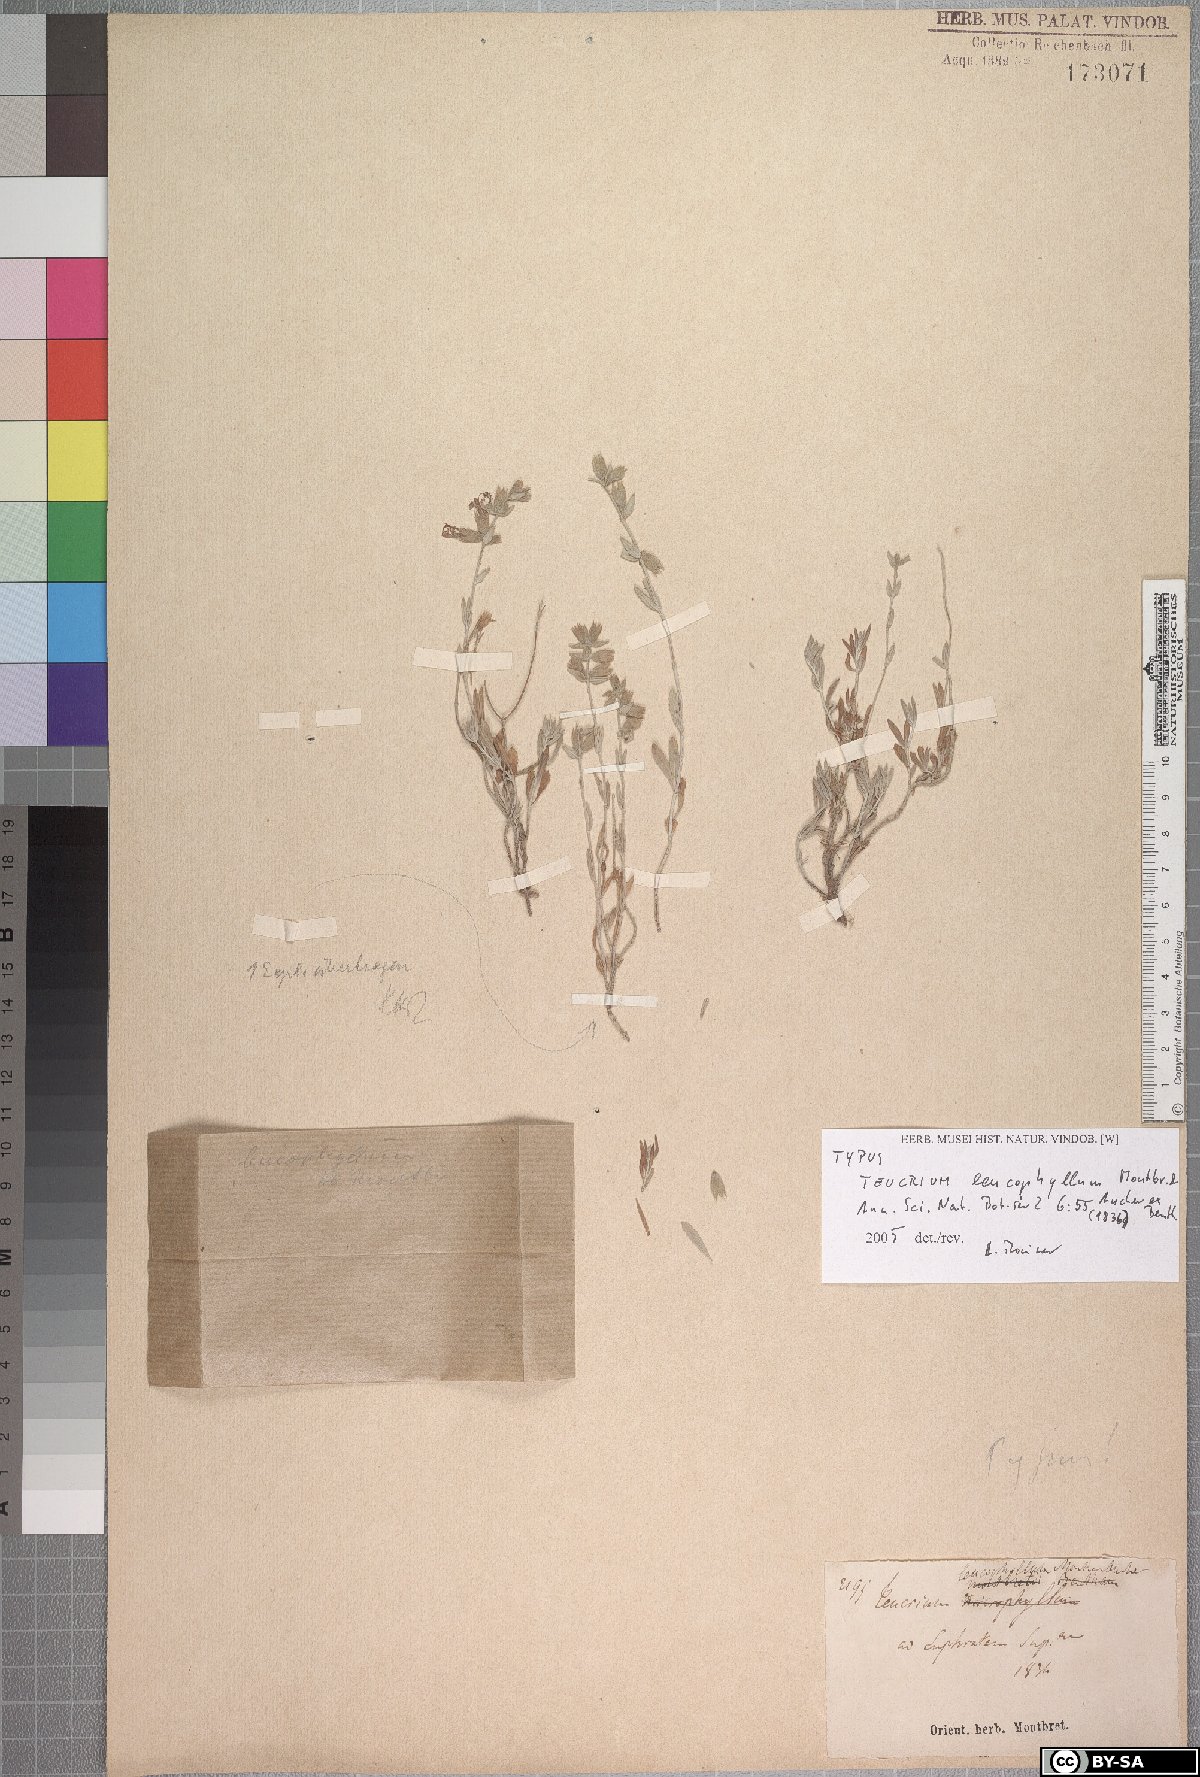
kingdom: Plantae
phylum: Tracheophyta
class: Magnoliopsida
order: Lamiales
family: Lamiaceae
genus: Teucrium
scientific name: Teucrium leucophyllum
